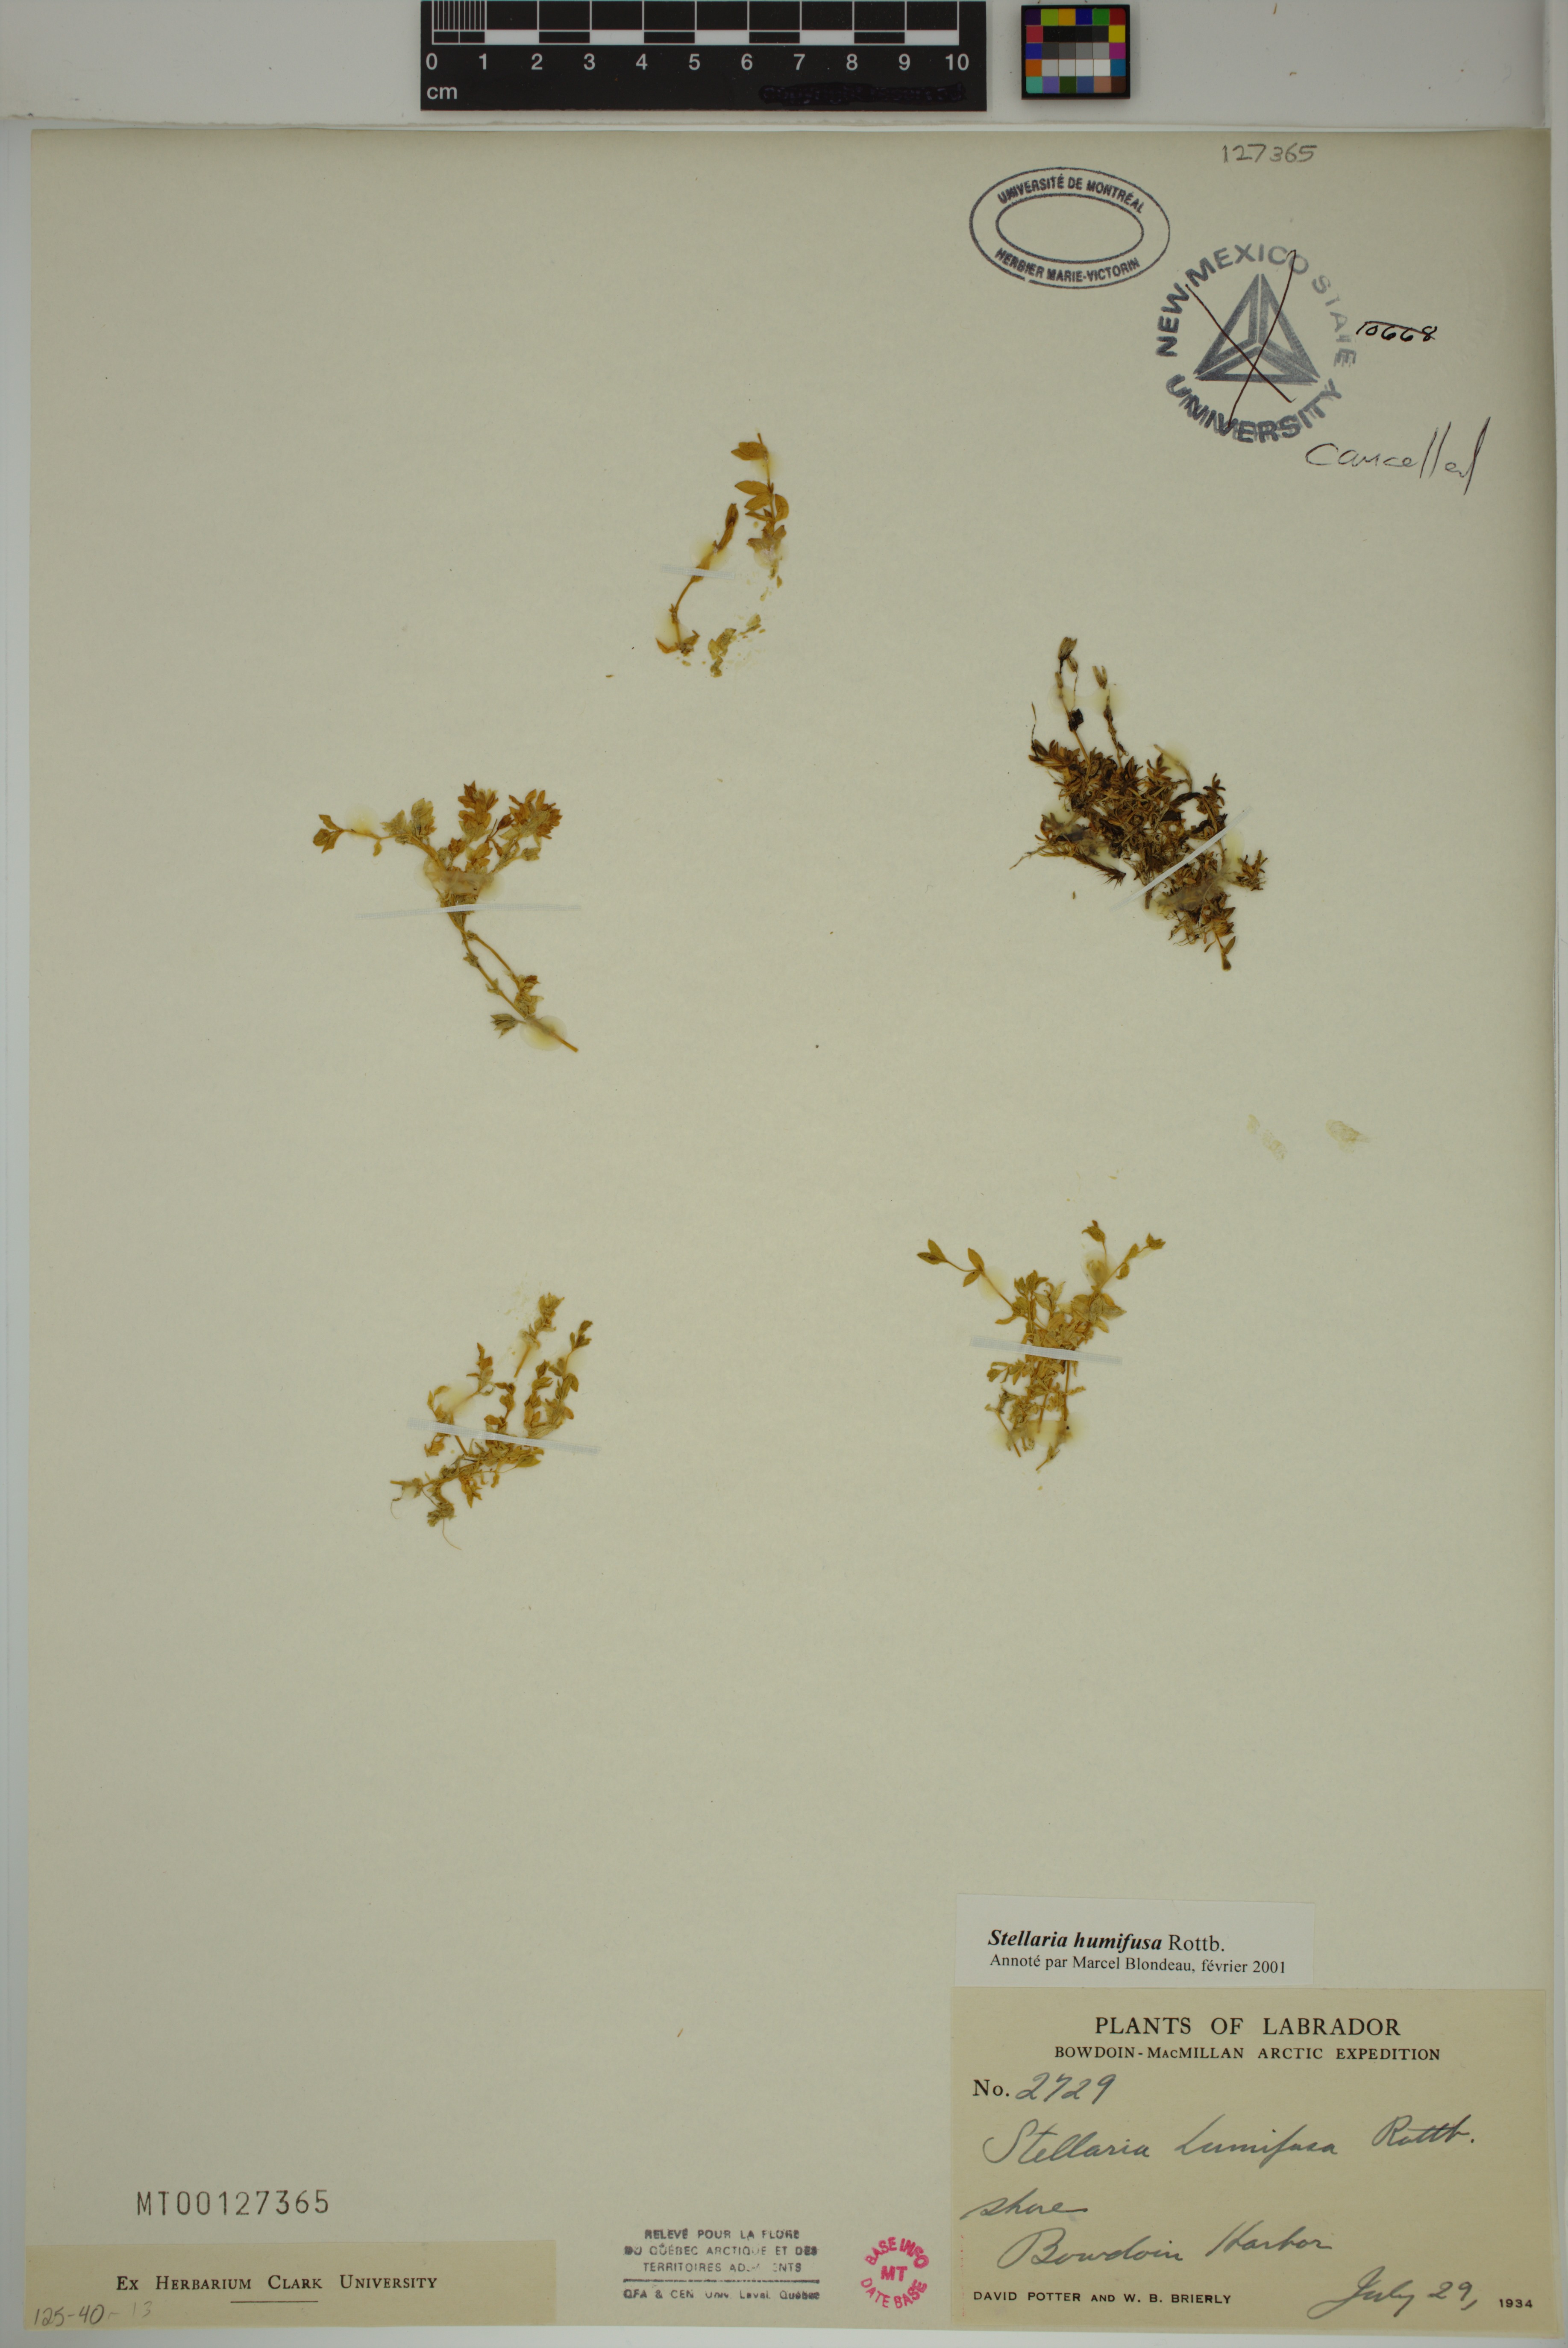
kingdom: Plantae
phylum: Tracheophyta
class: Magnoliopsida
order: Caryophyllales
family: Caryophyllaceae
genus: Stellaria
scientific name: Stellaria humifusa
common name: Creeping starwort
